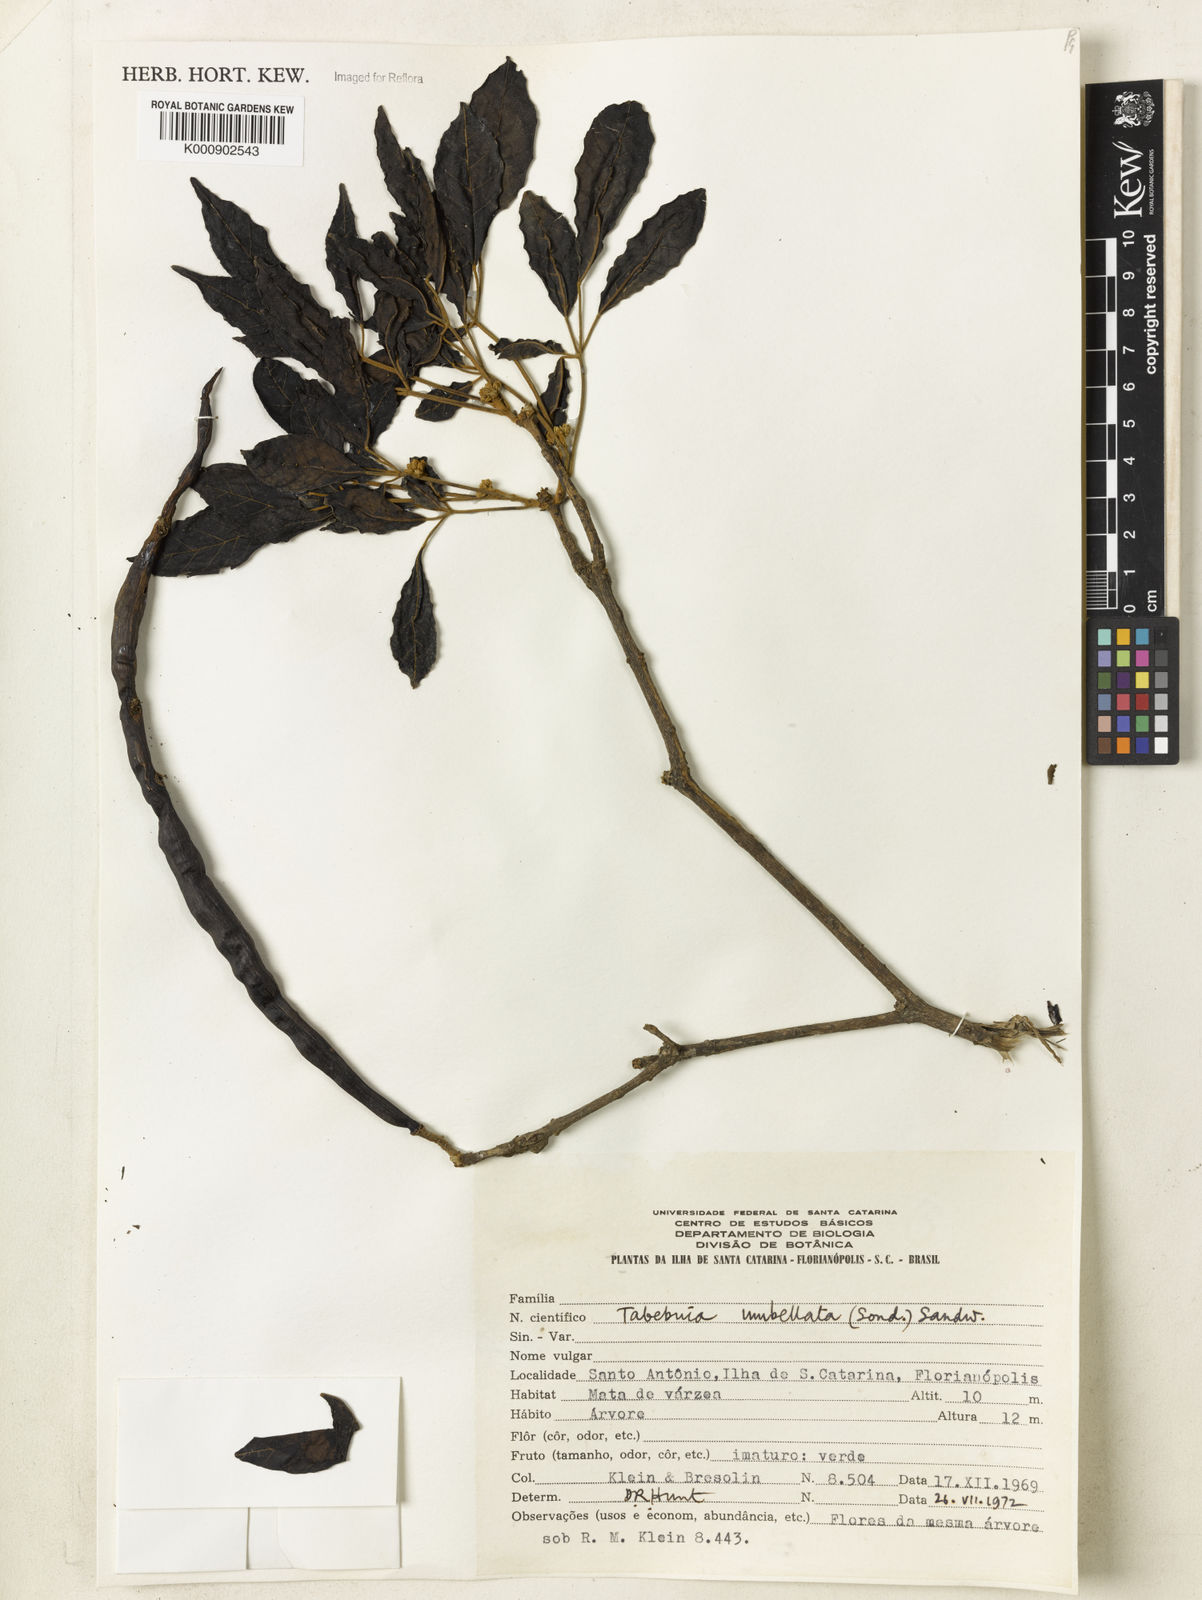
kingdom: Plantae
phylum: Tracheophyta
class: Magnoliopsida
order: Lamiales
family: Bignoniaceae
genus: Handroanthus
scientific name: Handroanthus umbellatus
